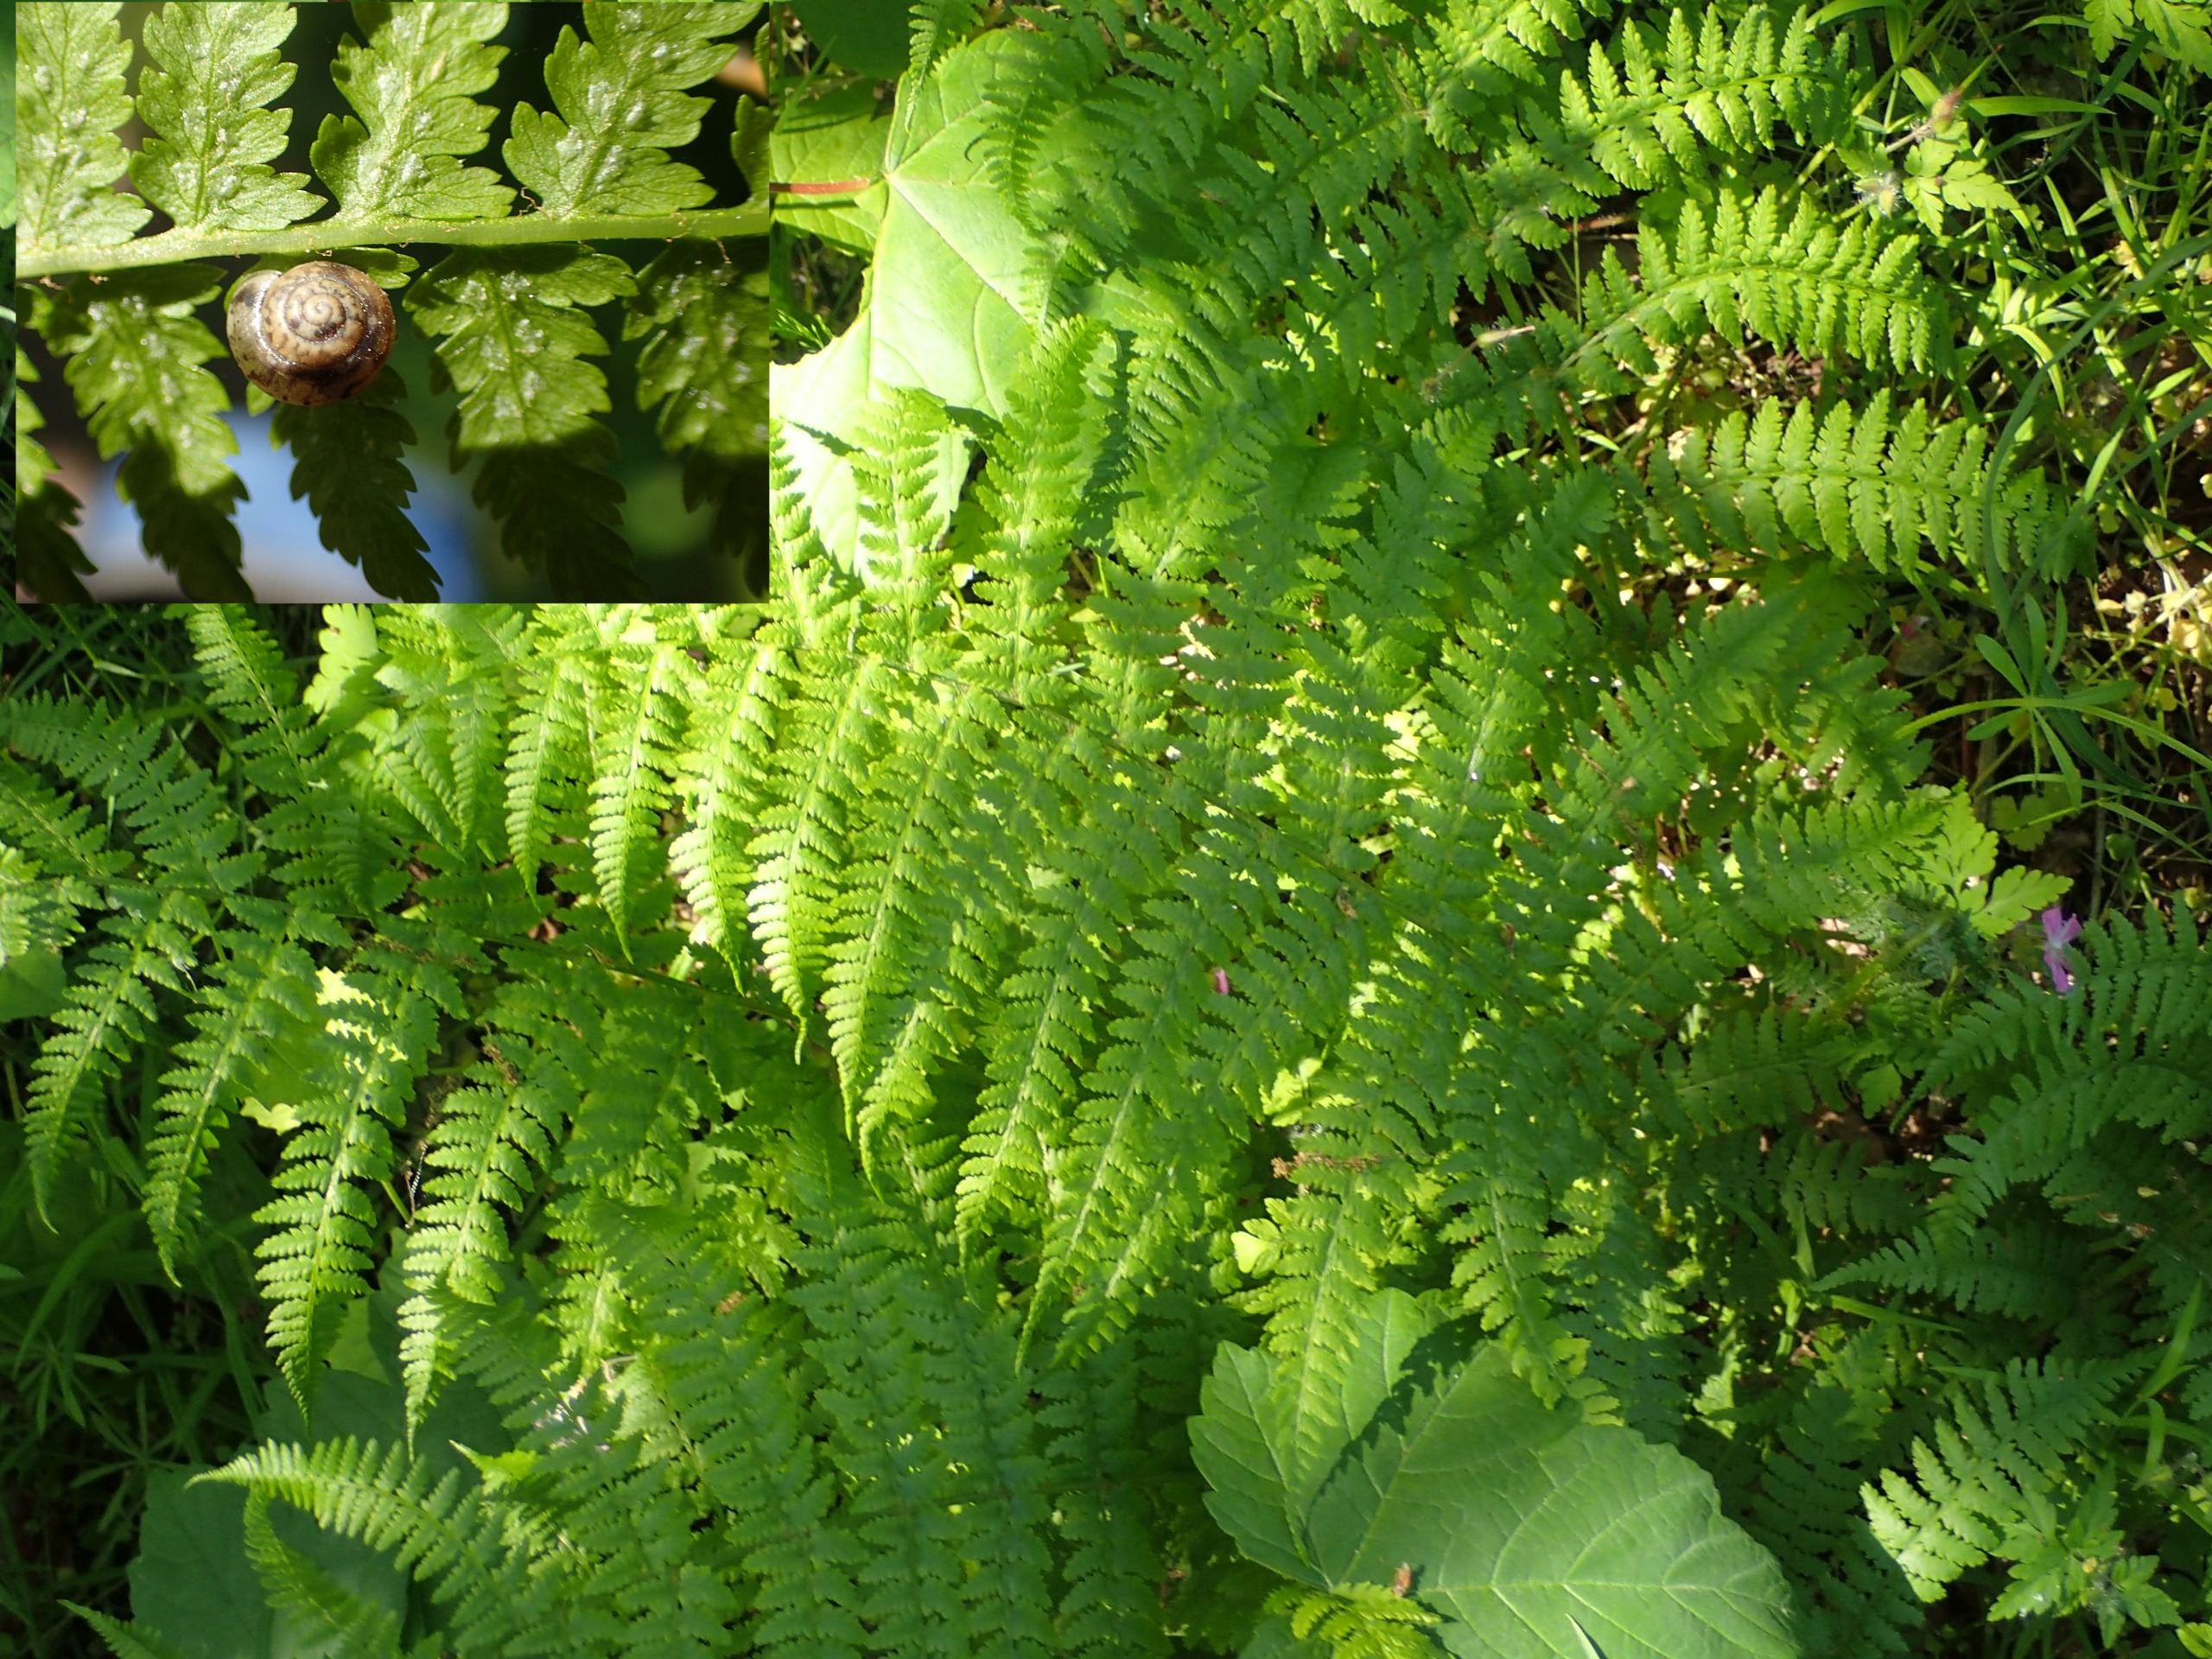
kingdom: Plantae
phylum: Tracheophyta
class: Polypodiopsida
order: Polypodiales
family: Athyriaceae
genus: Athyrium
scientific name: Athyrium filix-femina
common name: Fjerbregne
